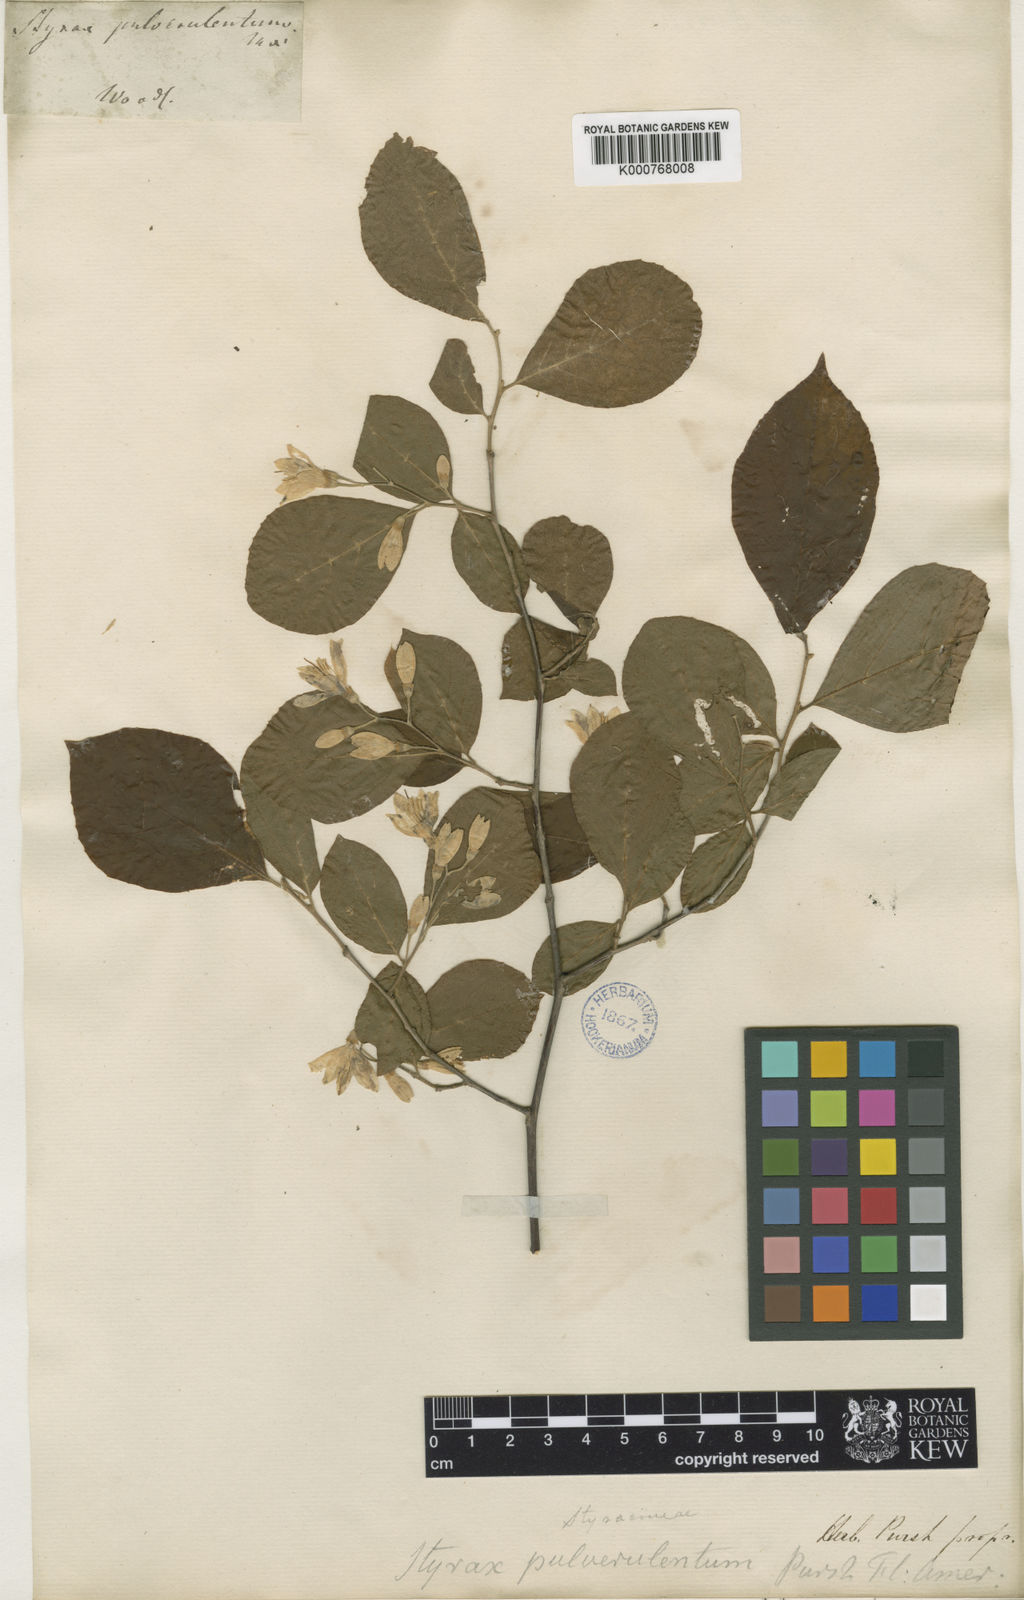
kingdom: Plantae
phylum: Tracheophyta
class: Magnoliopsida
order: Ericales
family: Styracaceae
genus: Styrax
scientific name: Styrax americanus
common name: American snowbell
